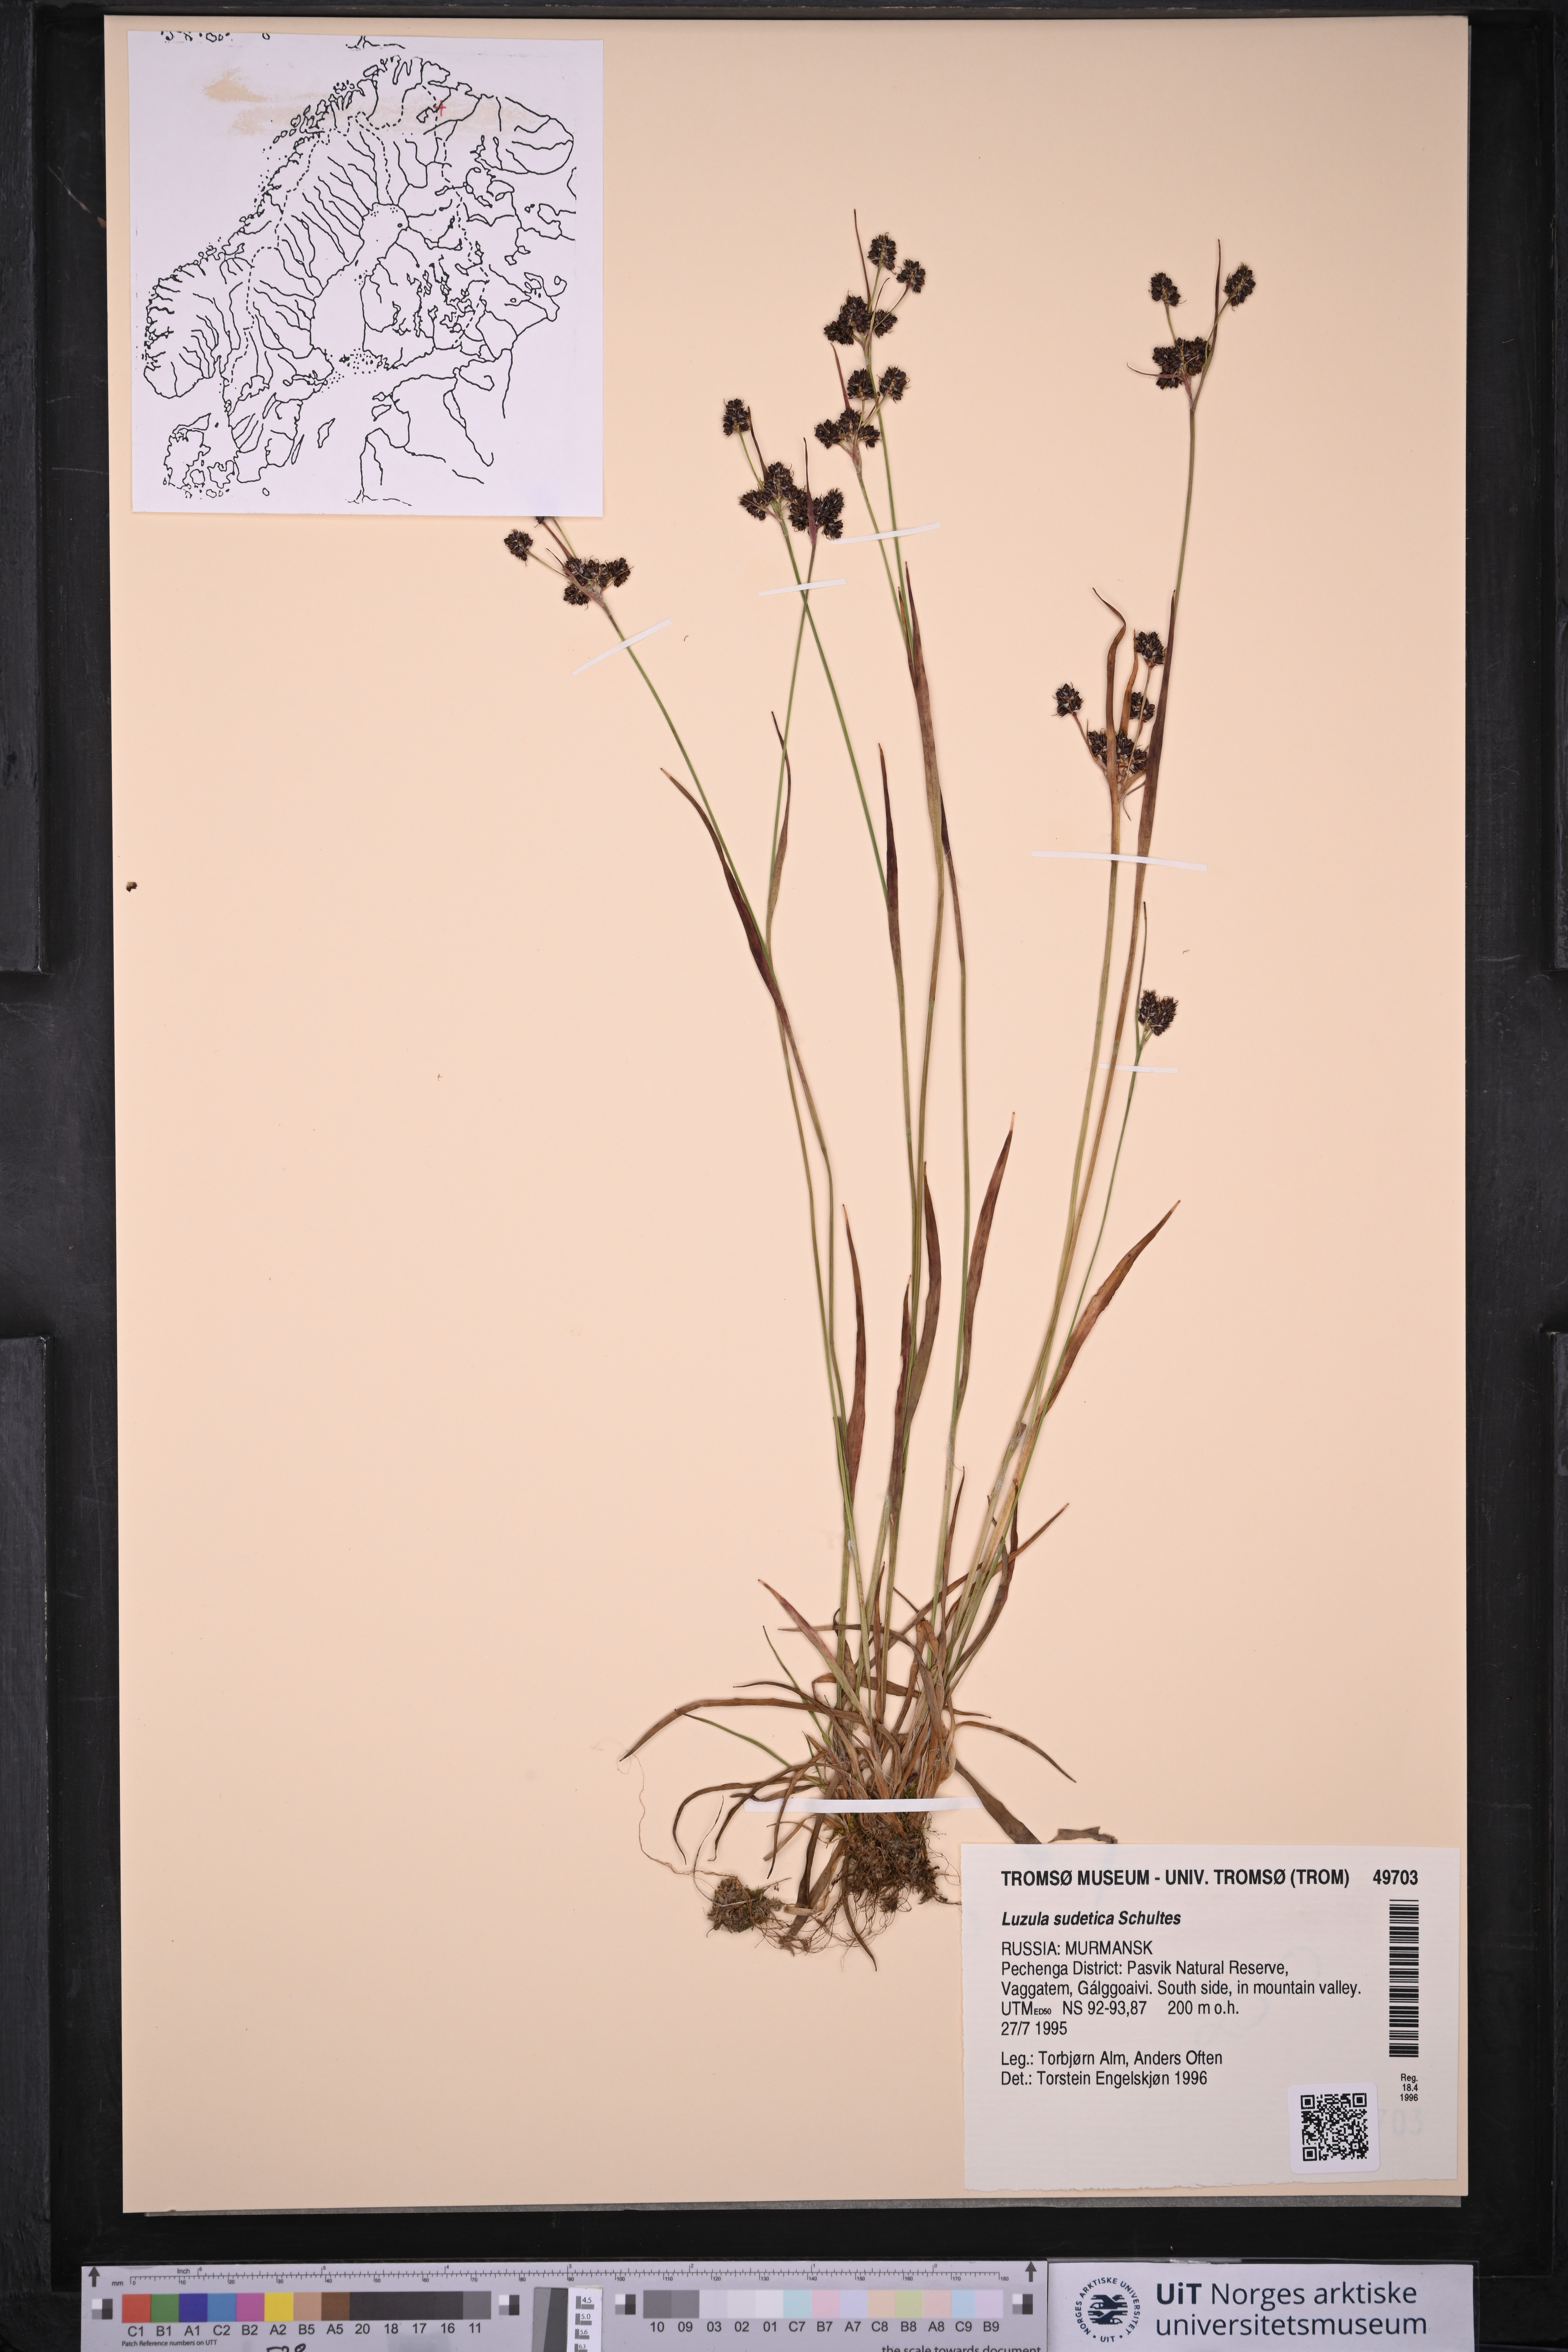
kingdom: Plantae
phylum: Tracheophyta
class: Liliopsida
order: Poales
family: Juncaceae
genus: Luzula
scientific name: Luzula sudetica
